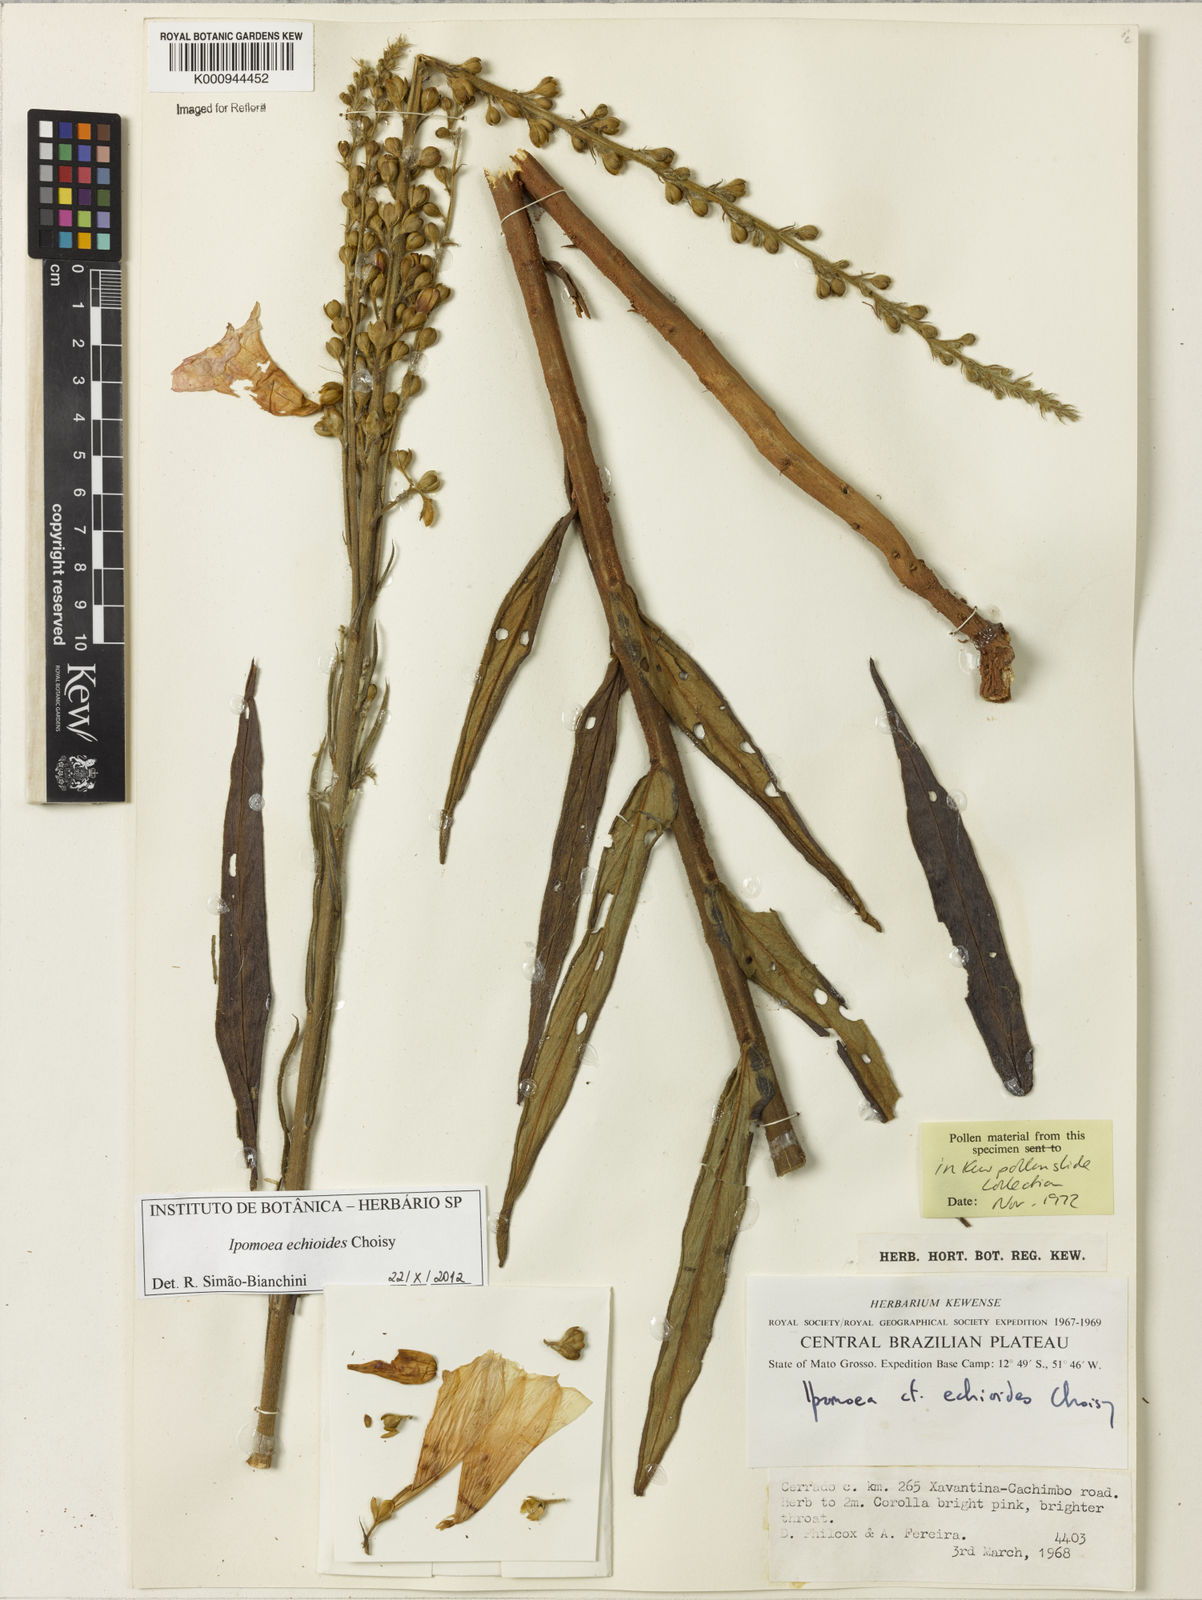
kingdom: Plantae
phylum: Tracheophyta
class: Magnoliopsida
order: Solanales
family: Convolvulaceae
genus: Ipomoea
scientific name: Ipomoea paulistana
